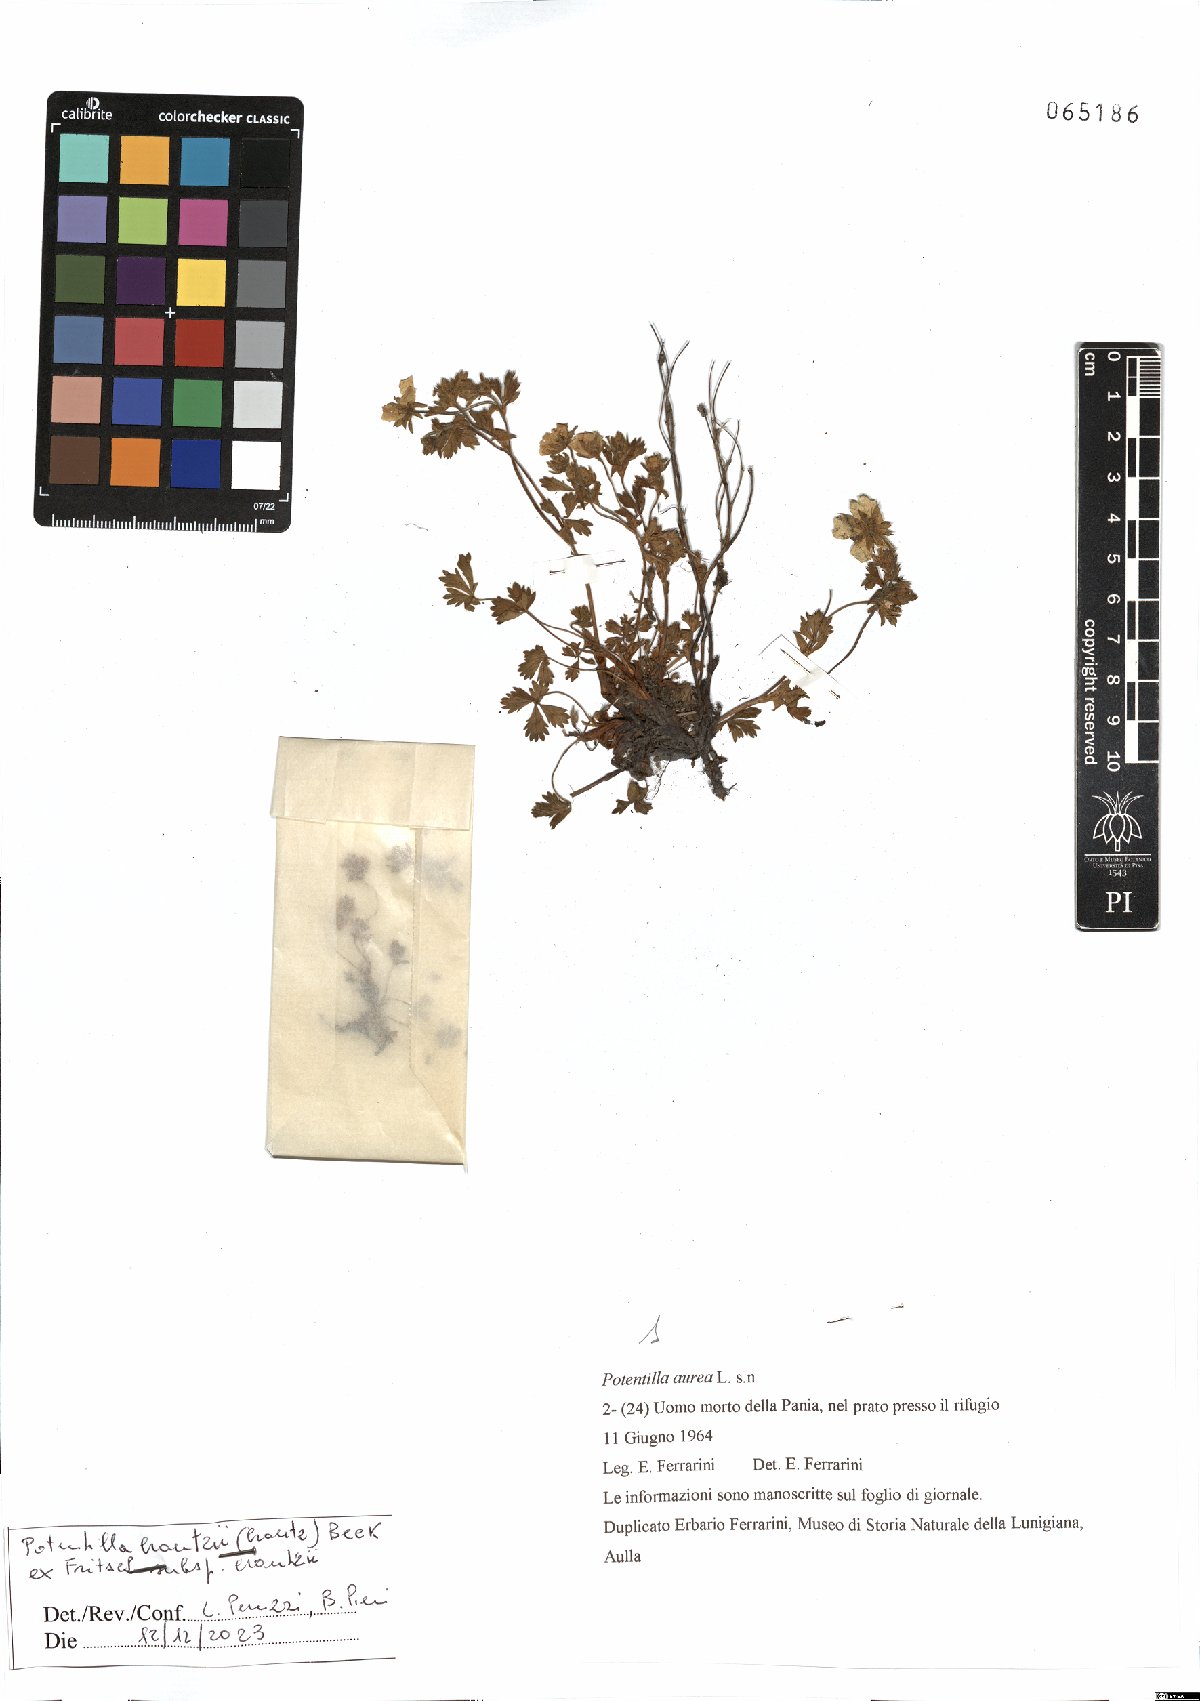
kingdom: Plantae
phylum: Tracheophyta
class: Magnoliopsida
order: Rosales
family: Rosaceae
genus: Potentilla
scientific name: Potentilla crantzii
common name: Alpine cinquefoil
